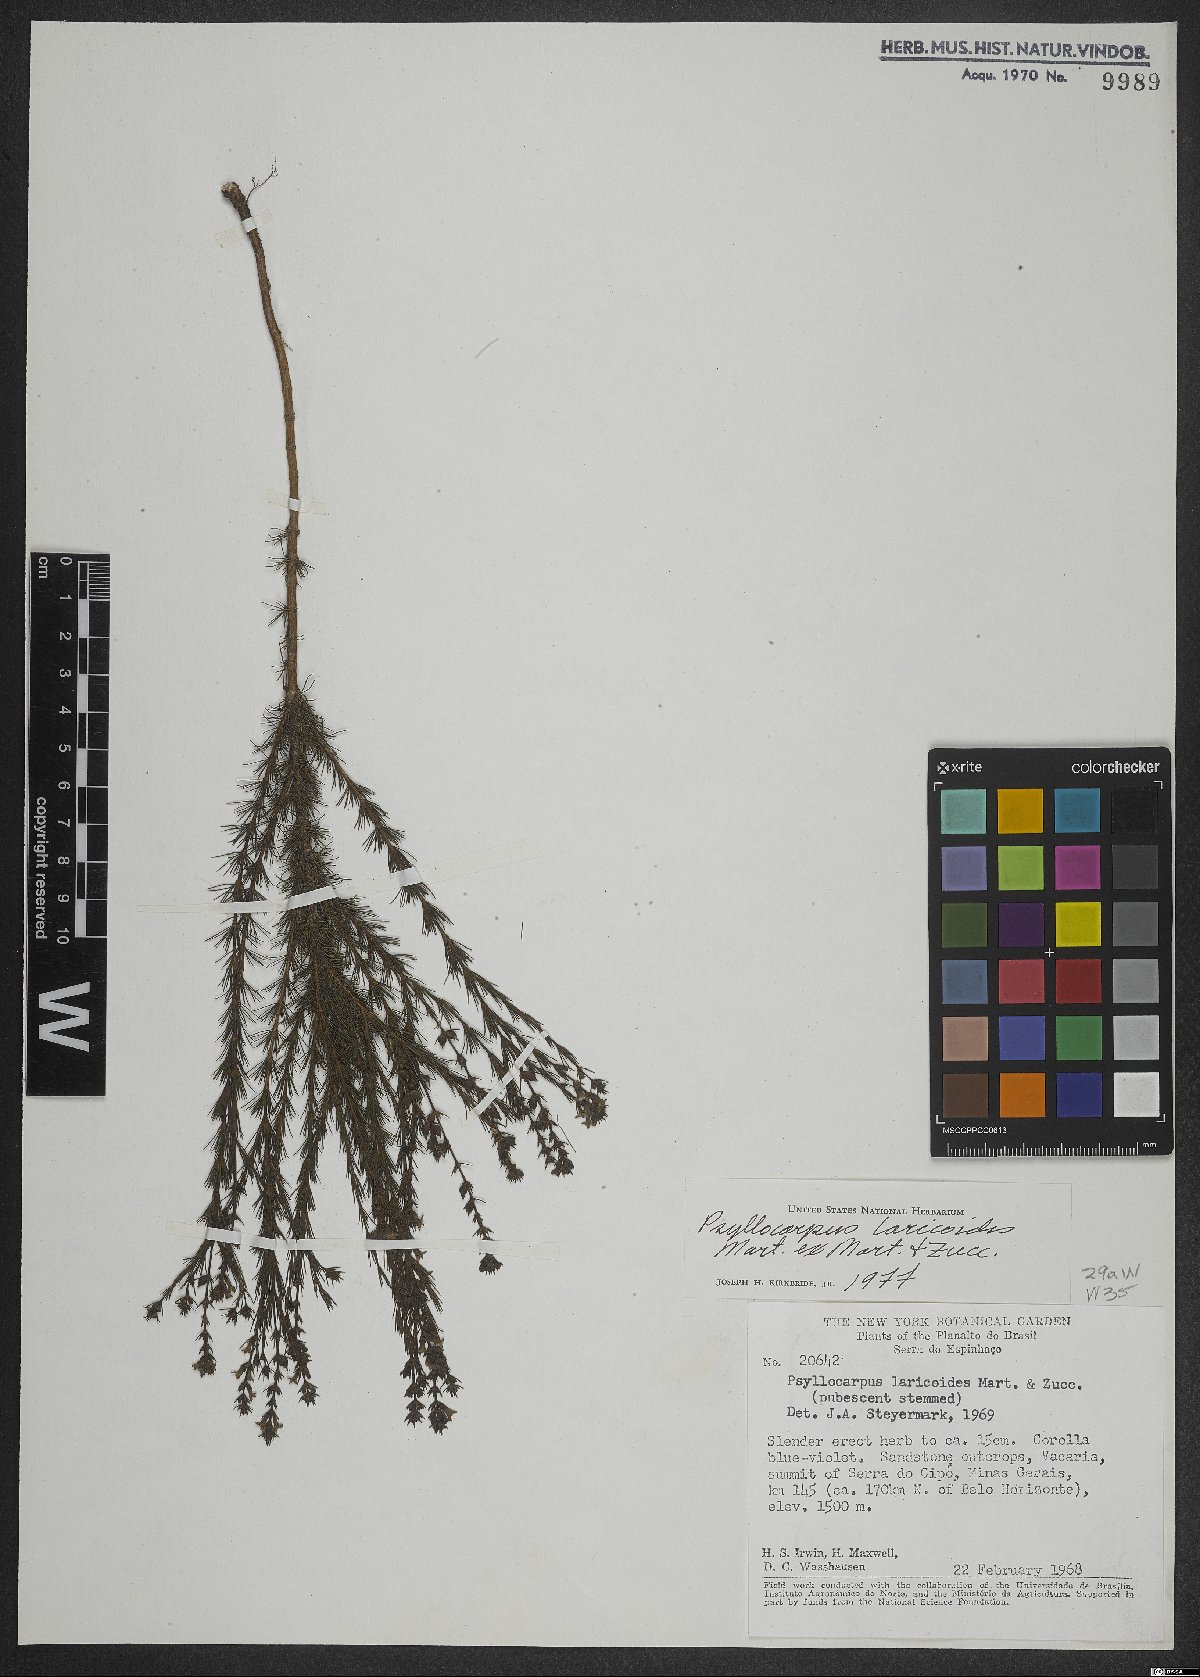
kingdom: Plantae
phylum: Tracheophyta
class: Magnoliopsida
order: Gentianales
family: Rubiaceae
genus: Psyllocarpus
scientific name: Psyllocarpus laricoides
